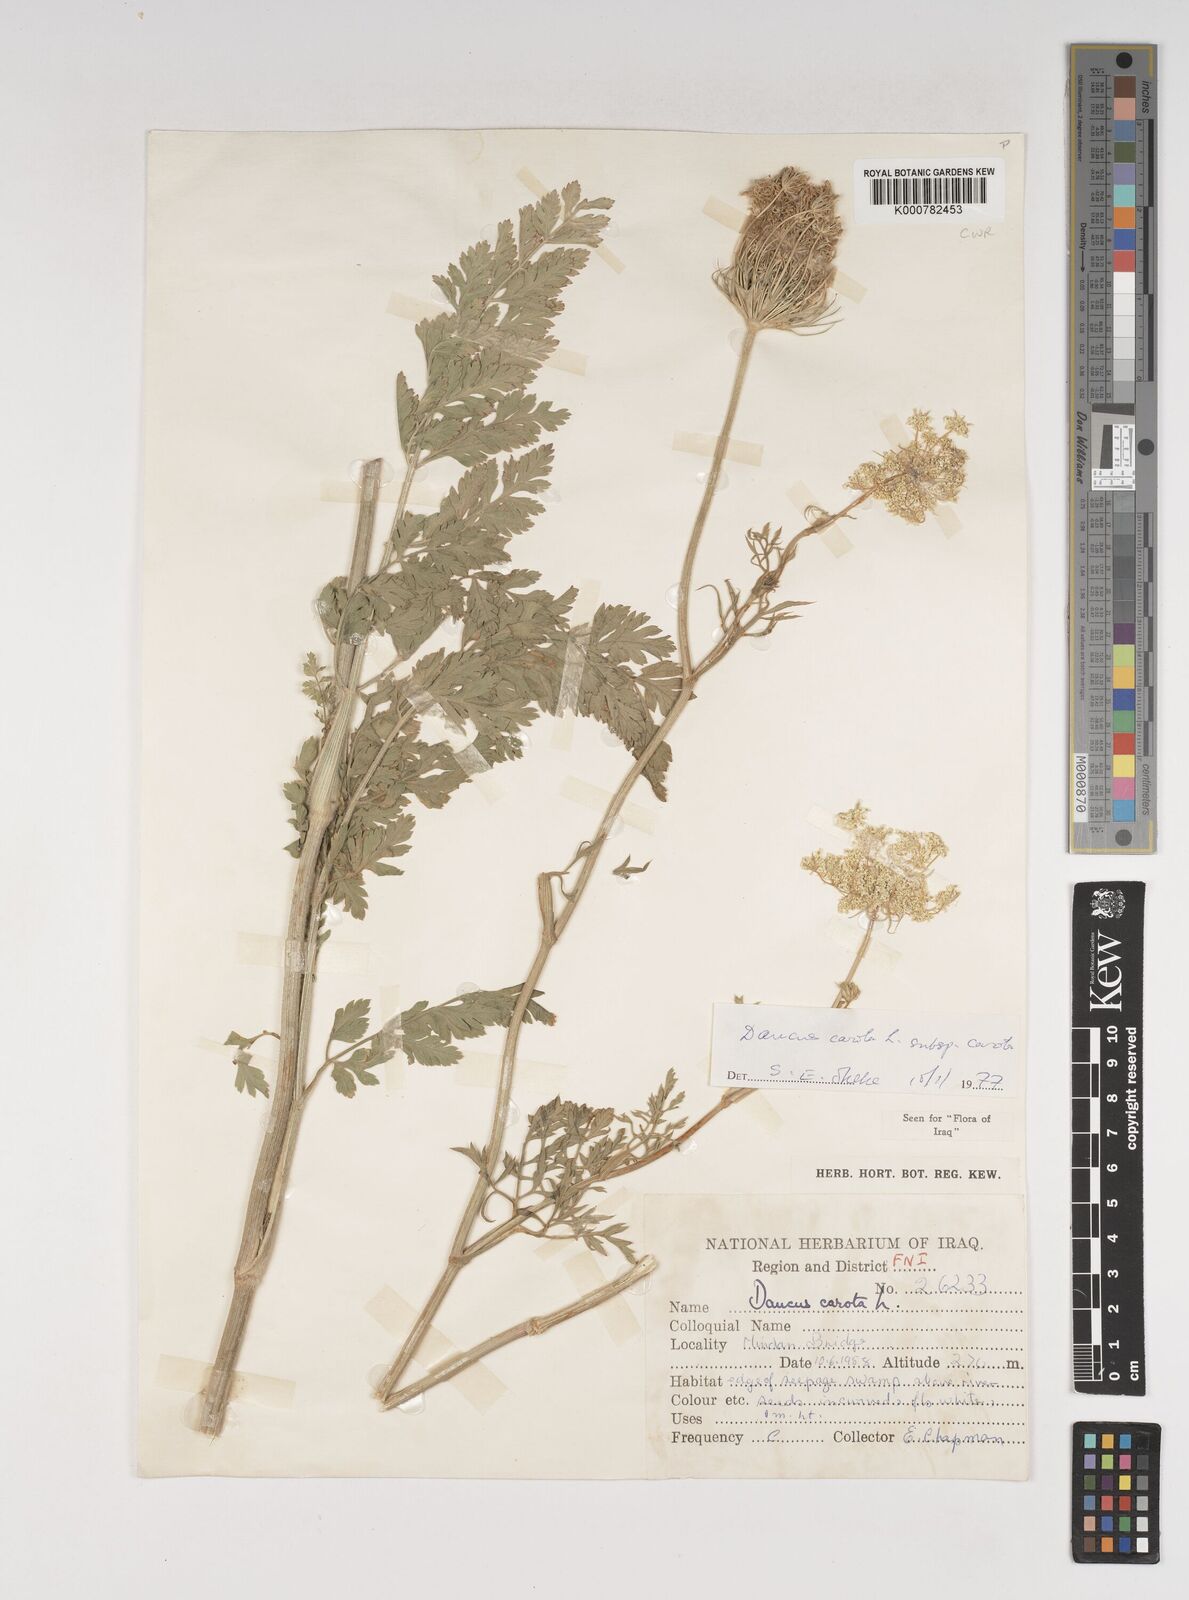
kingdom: Plantae
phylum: Tracheophyta
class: Magnoliopsida
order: Apiales
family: Apiaceae
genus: Daucus
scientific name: Daucus carota
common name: Wild carrot
